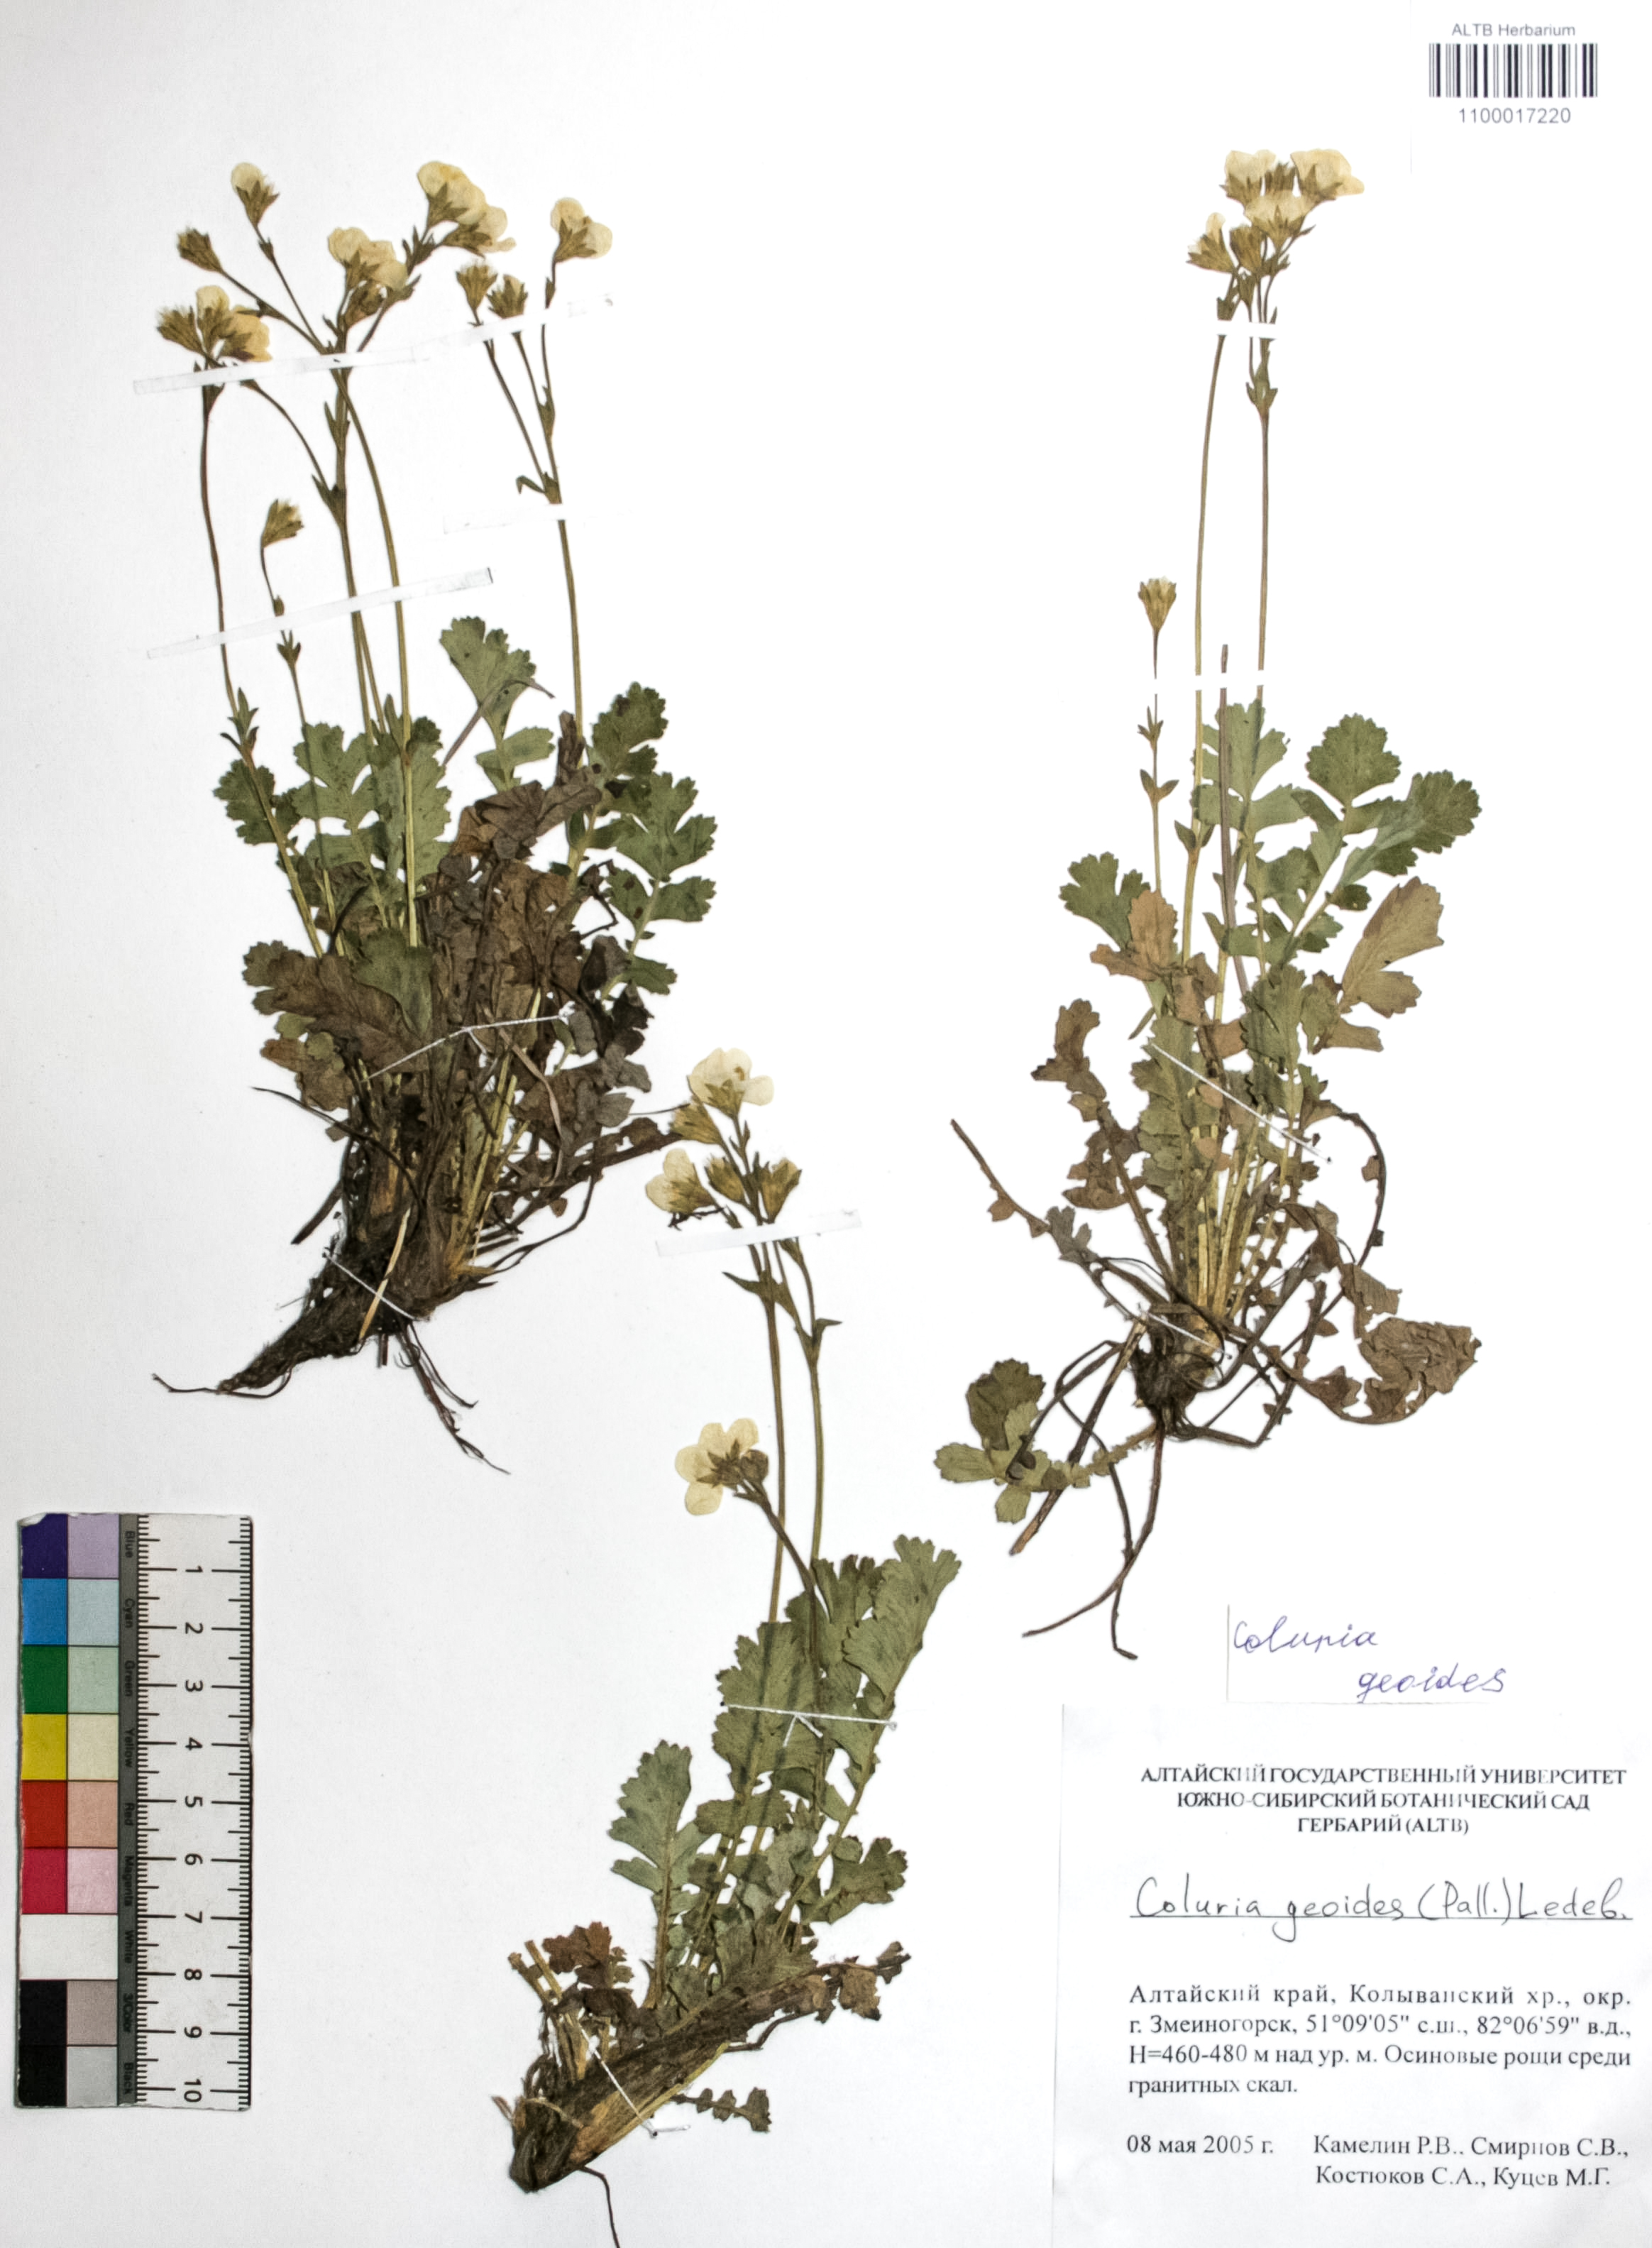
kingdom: Plantae
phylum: Tracheophyta
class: Magnoliopsida
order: Rosales
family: Rosaceae
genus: Geum
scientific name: Geum geoides
